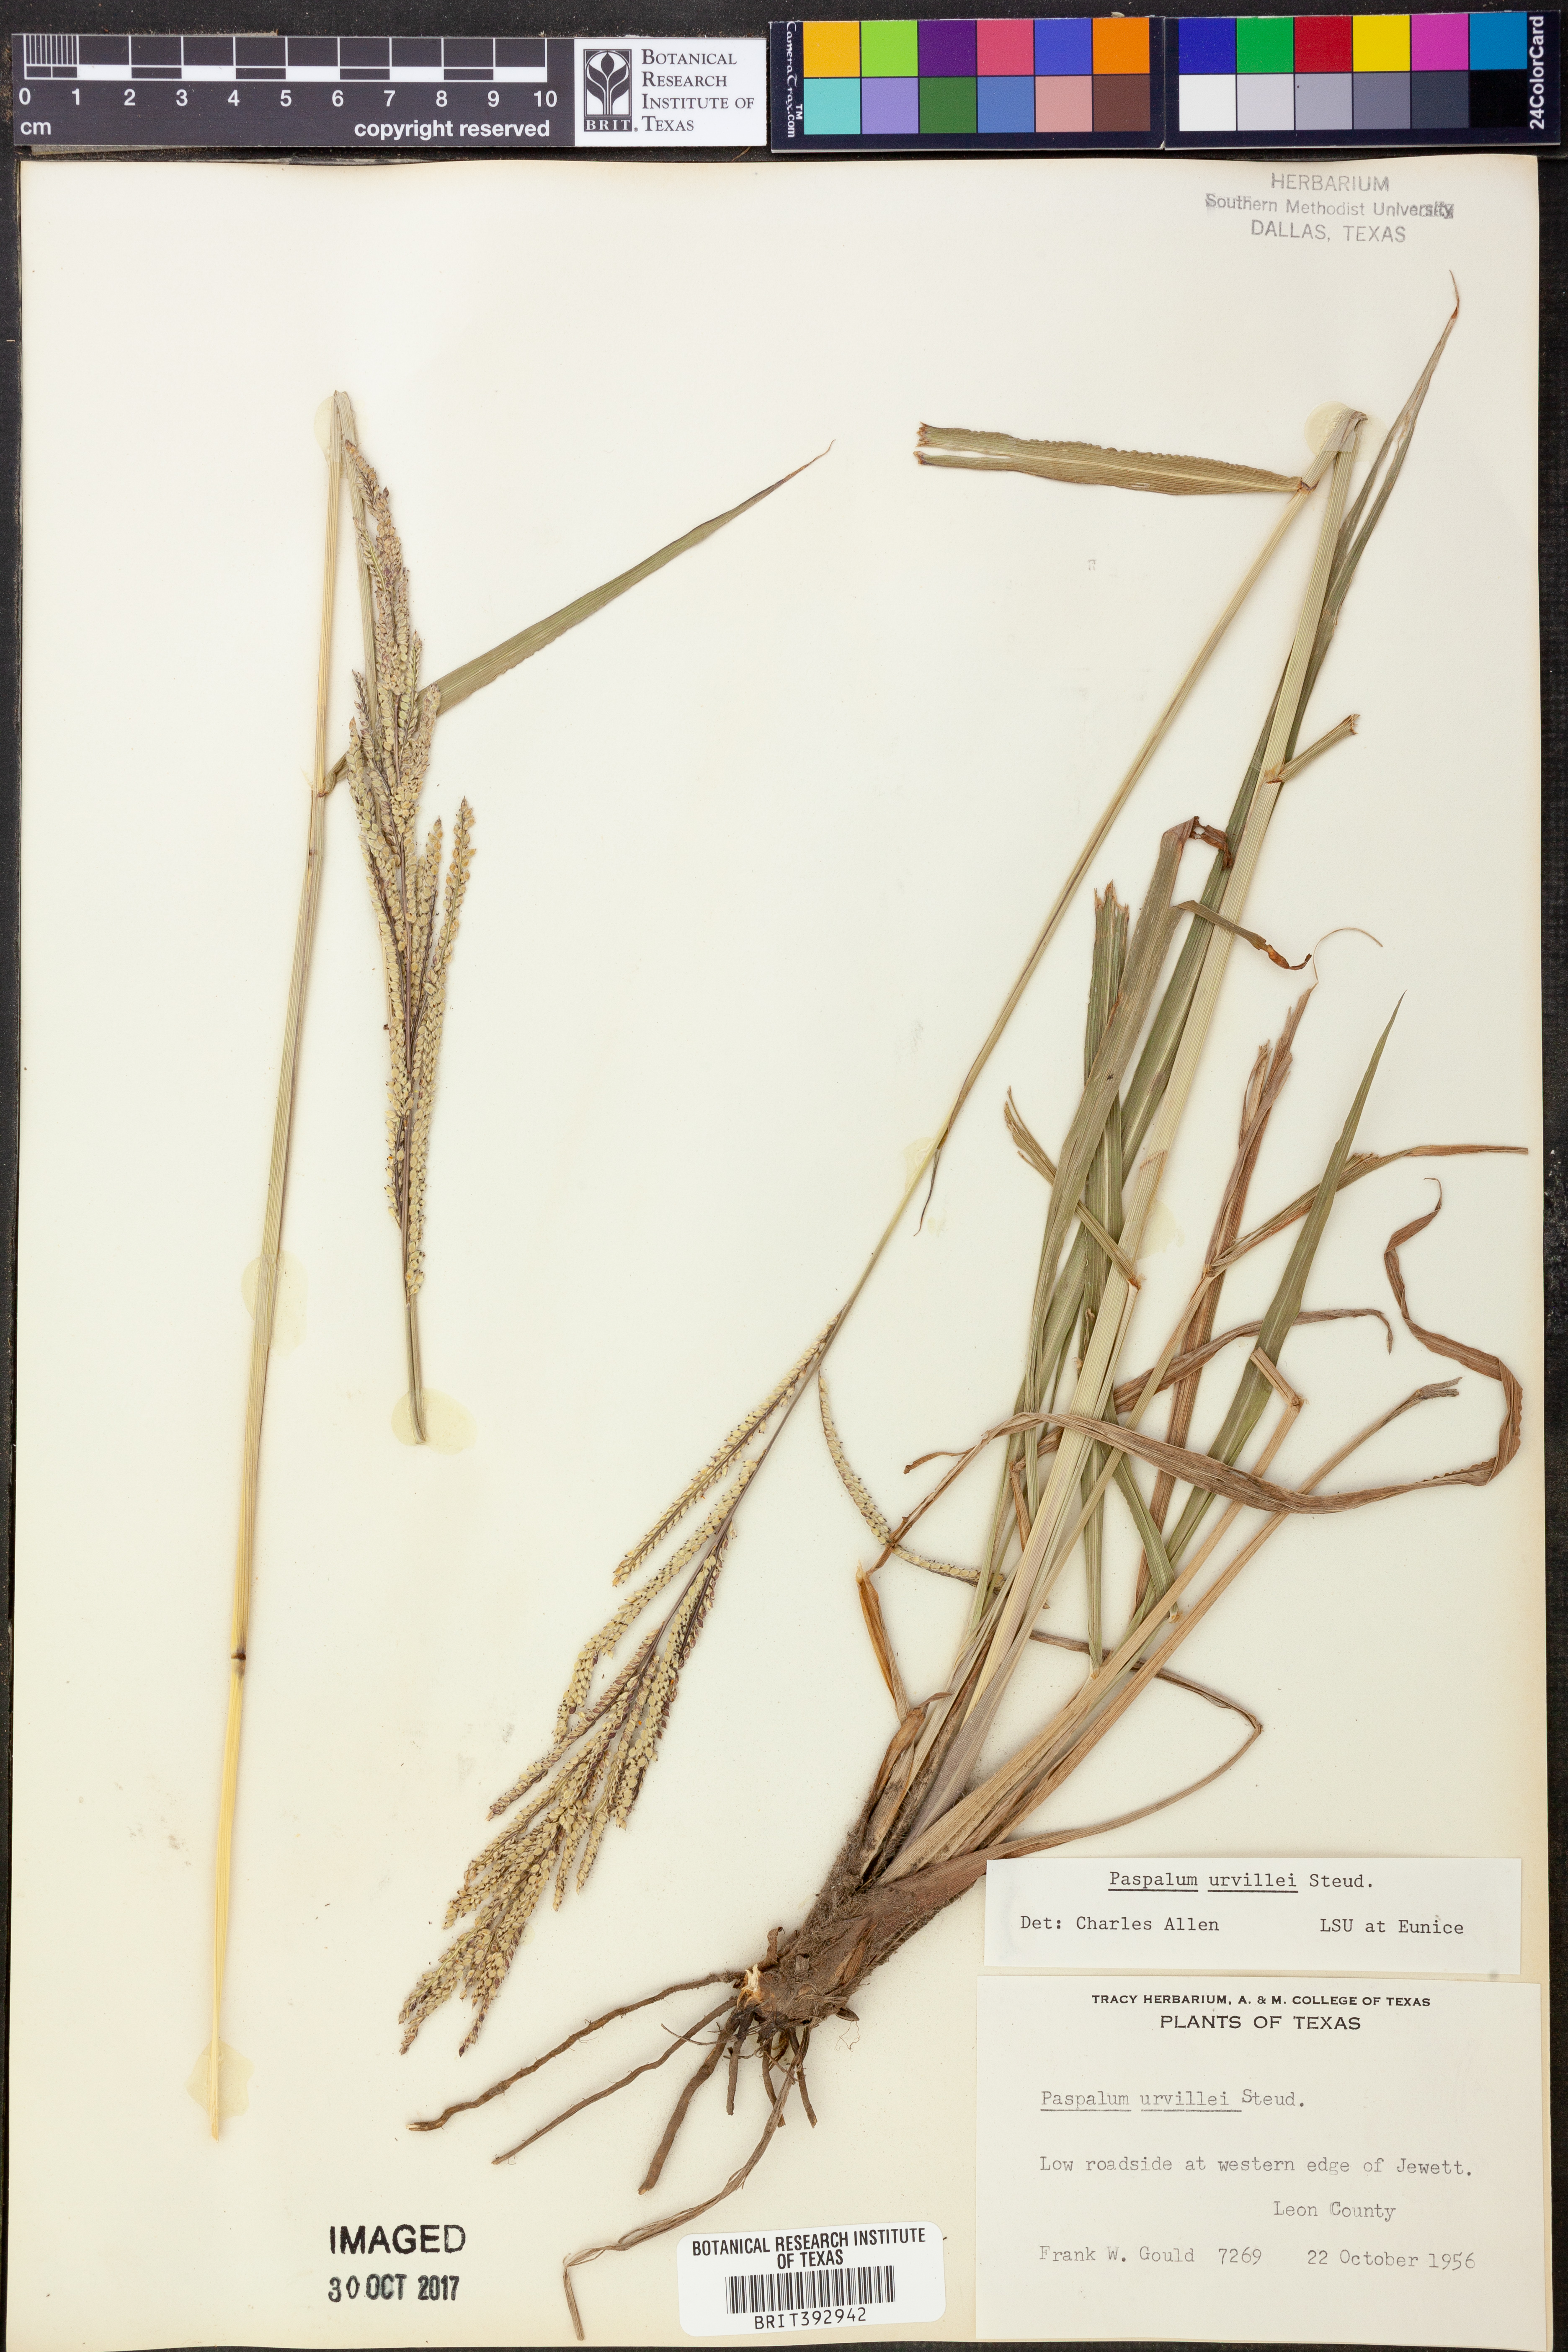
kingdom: Plantae
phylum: Tracheophyta
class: Liliopsida
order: Poales
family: Poaceae
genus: Paspalum
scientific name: Paspalum urvillei
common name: Vasey's grass
